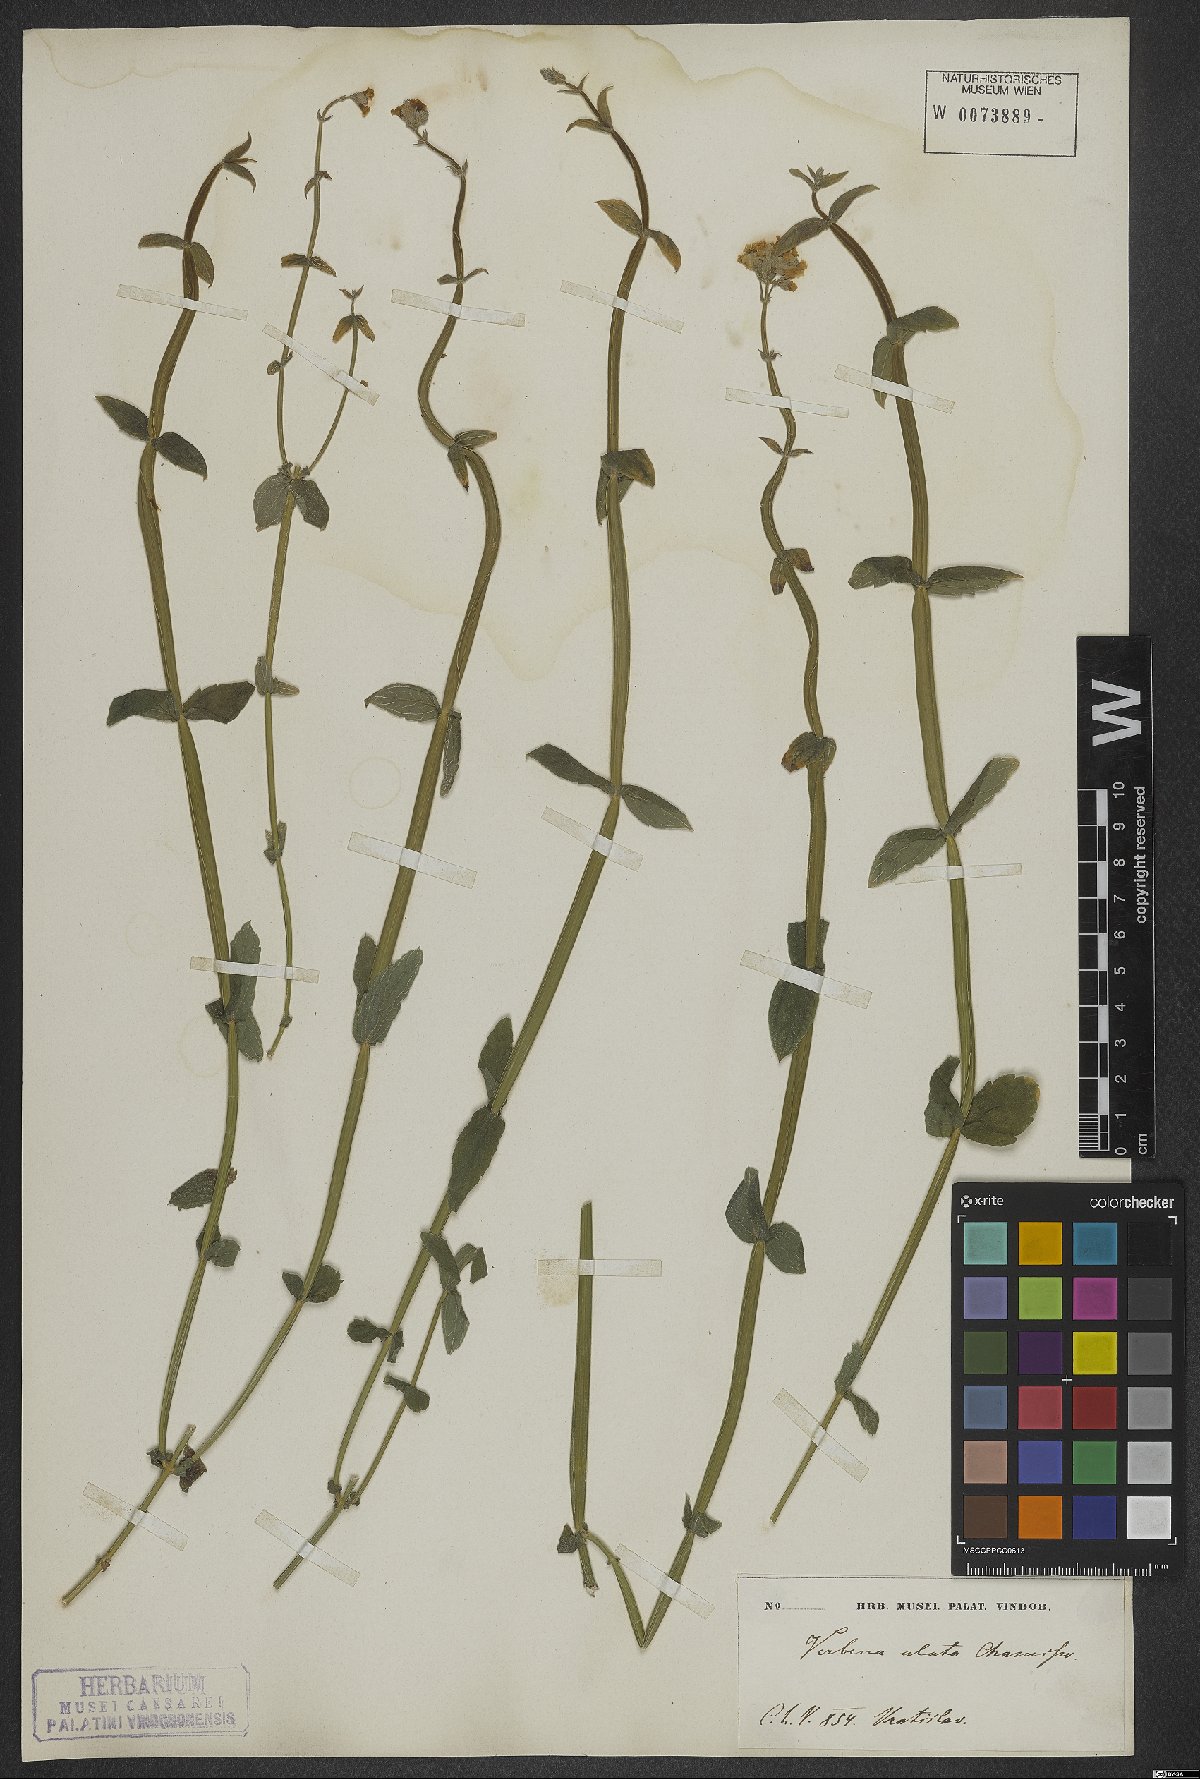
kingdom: Plantae
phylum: Tracheophyta
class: Magnoliopsida
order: Lamiales
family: Verbenaceae
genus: Verbena
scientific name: Verbena alata
